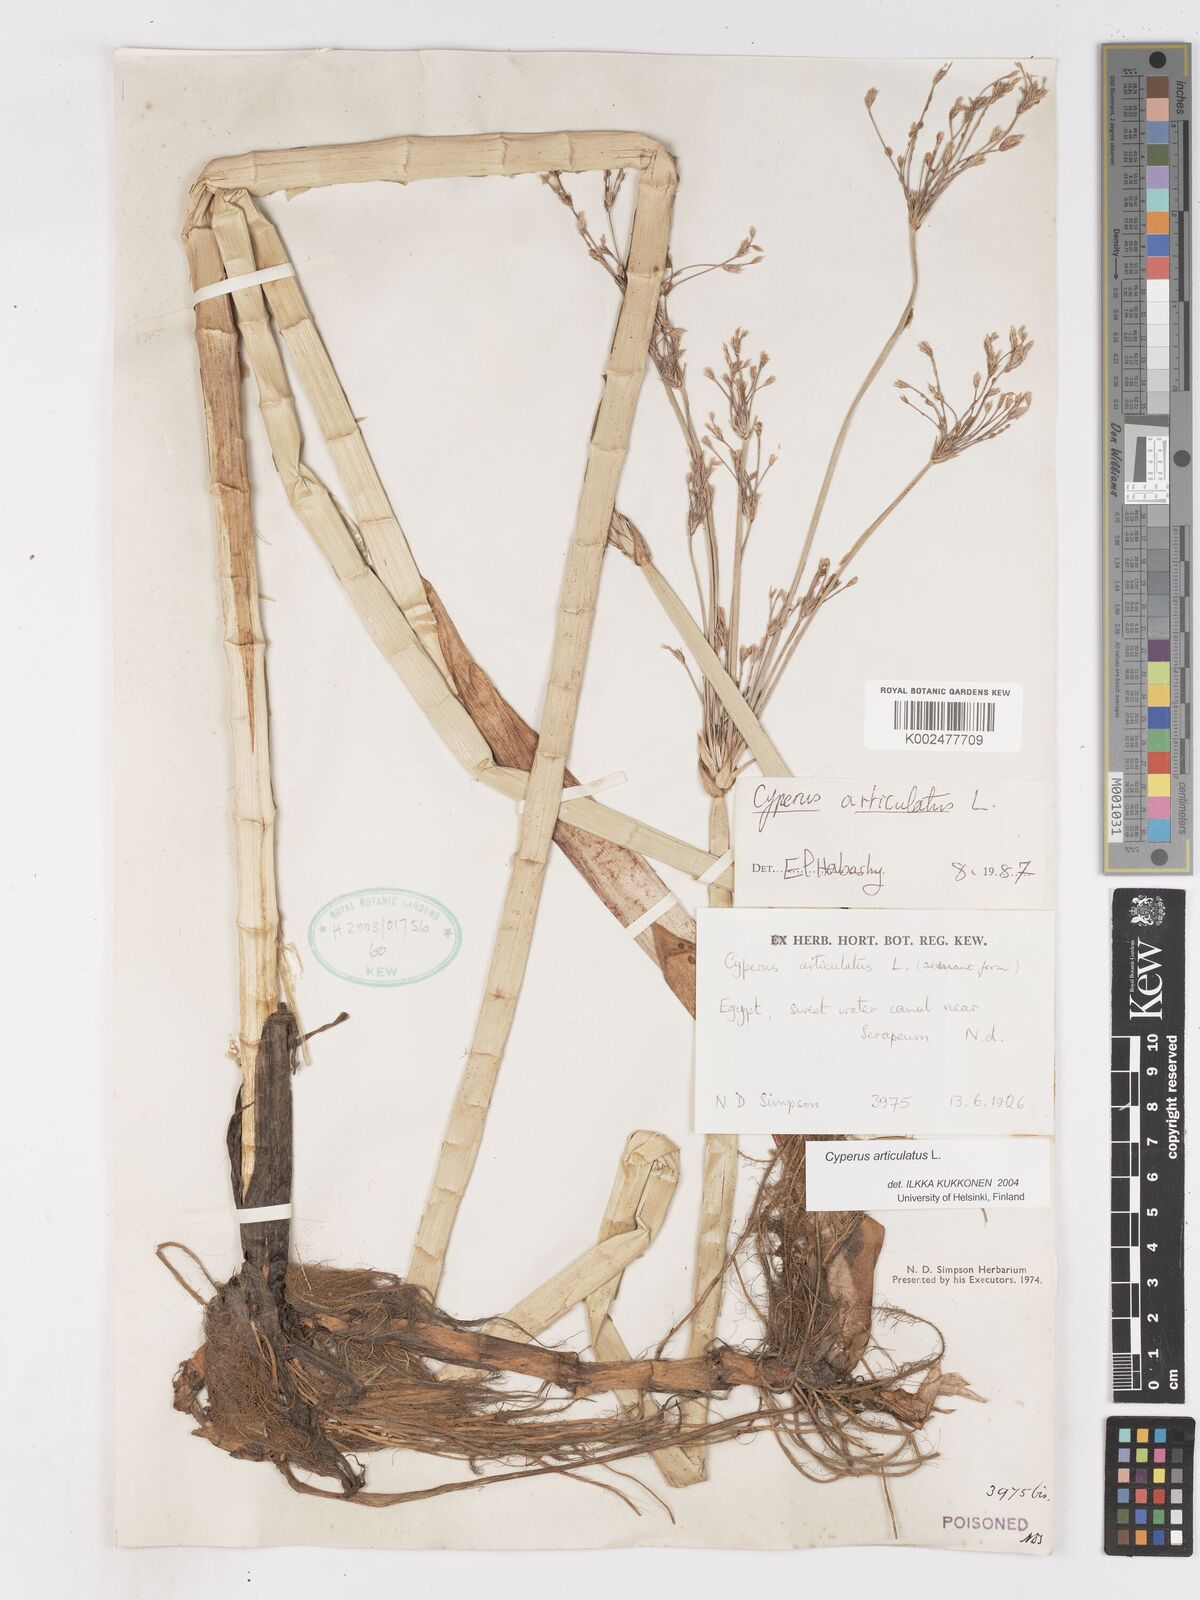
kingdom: Plantae
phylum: Tracheophyta
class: Liliopsida
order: Poales
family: Cyperaceae
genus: Cyperus
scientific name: Cyperus articulatus
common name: Jointed flatsedge
